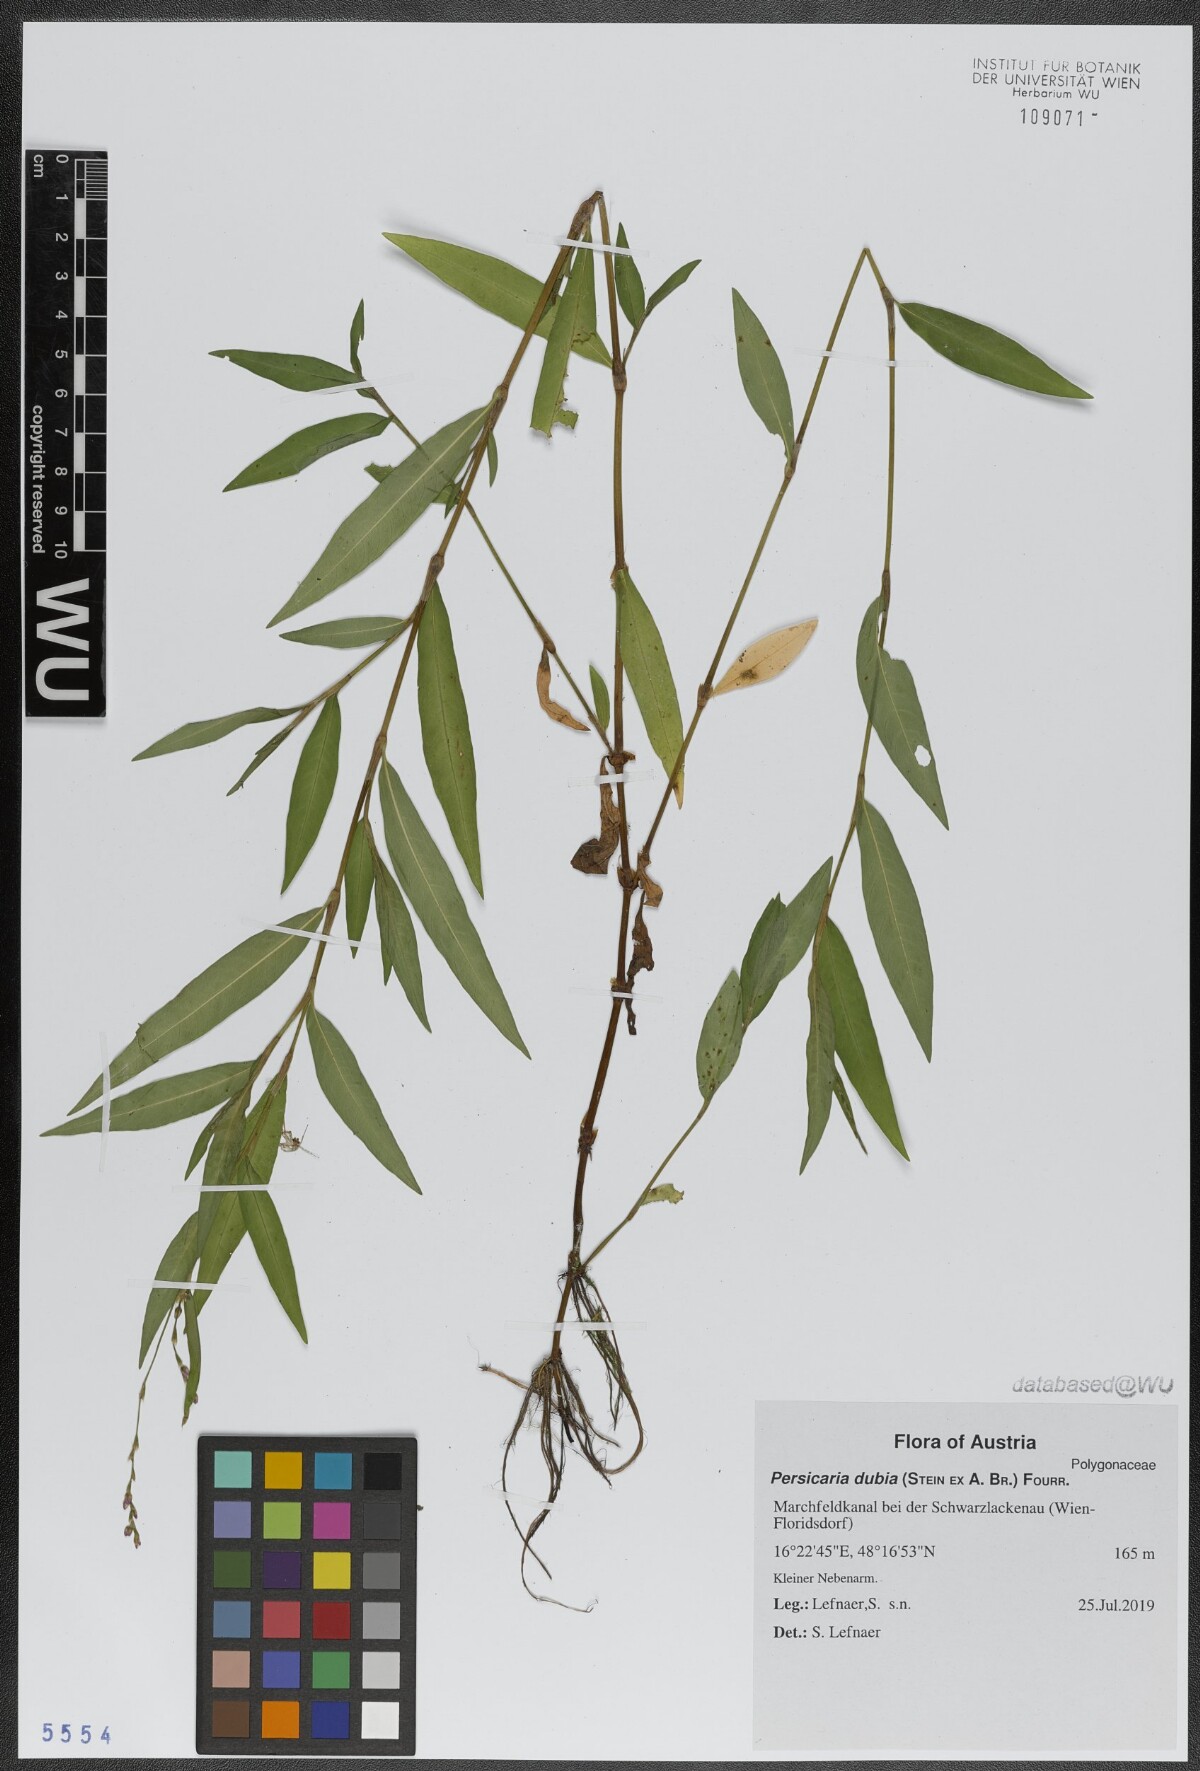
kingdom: Plantae
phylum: Tracheophyta
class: Magnoliopsida
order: Caryophyllales
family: Polygonaceae
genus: Persicaria
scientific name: Persicaria mitis
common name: Tasteless water-pepper
